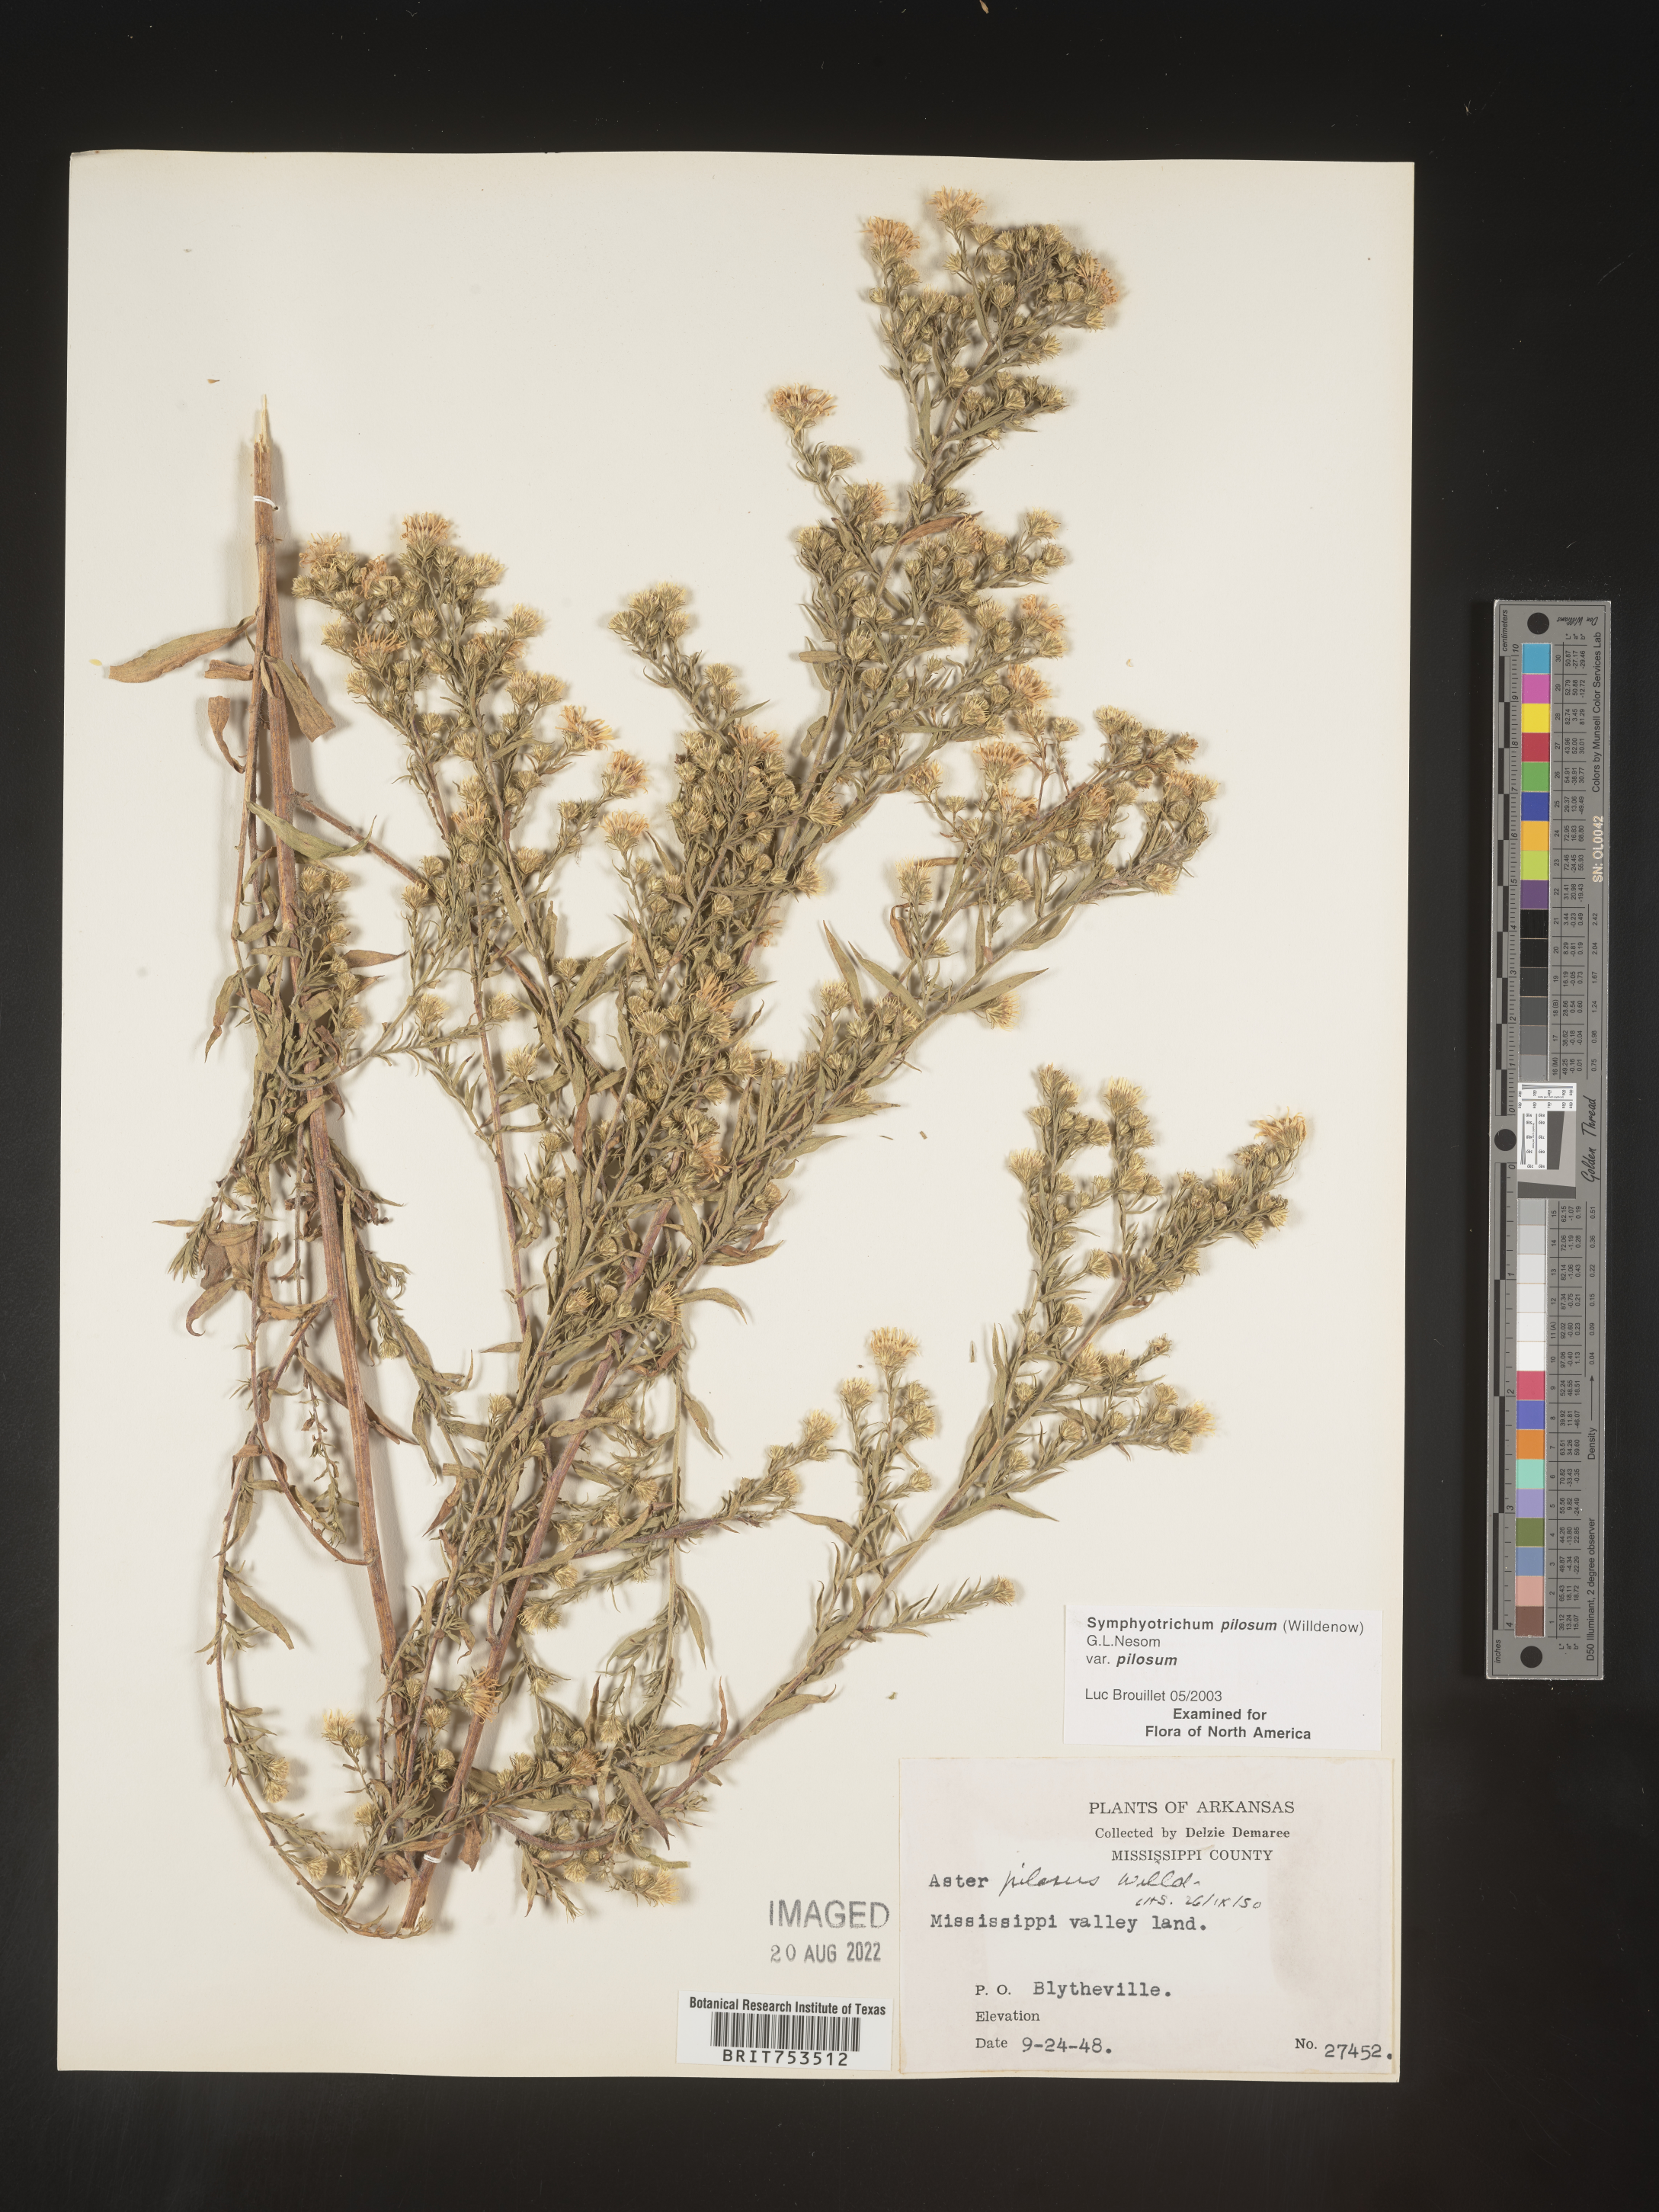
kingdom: Plantae
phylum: Tracheophyta
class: Magnoliopsida
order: Asterales
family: Asteraceae
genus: Symphyotrichum
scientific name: Symphyotrichum pilosum
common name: Awl aster
